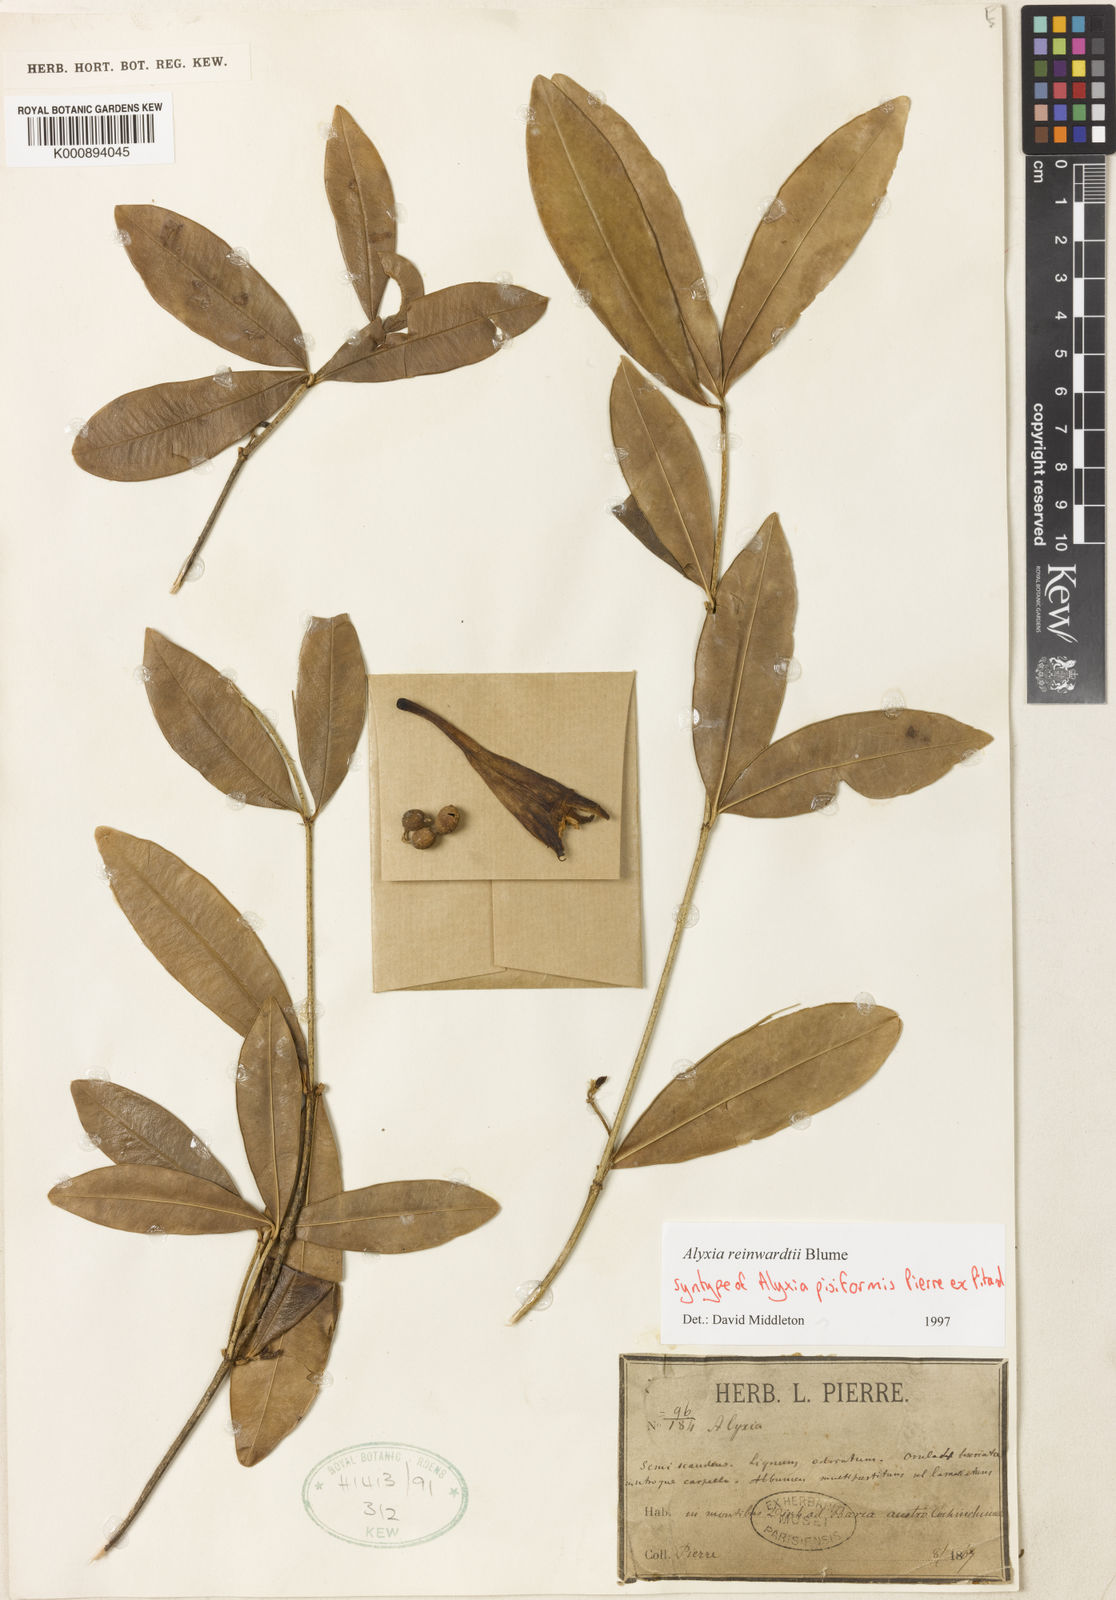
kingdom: Plantae
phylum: Tracheophyta
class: Magnoliopsida
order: Gentianales
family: Apocynaceae
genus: Alyxia
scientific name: Alyxia reinwardtii
